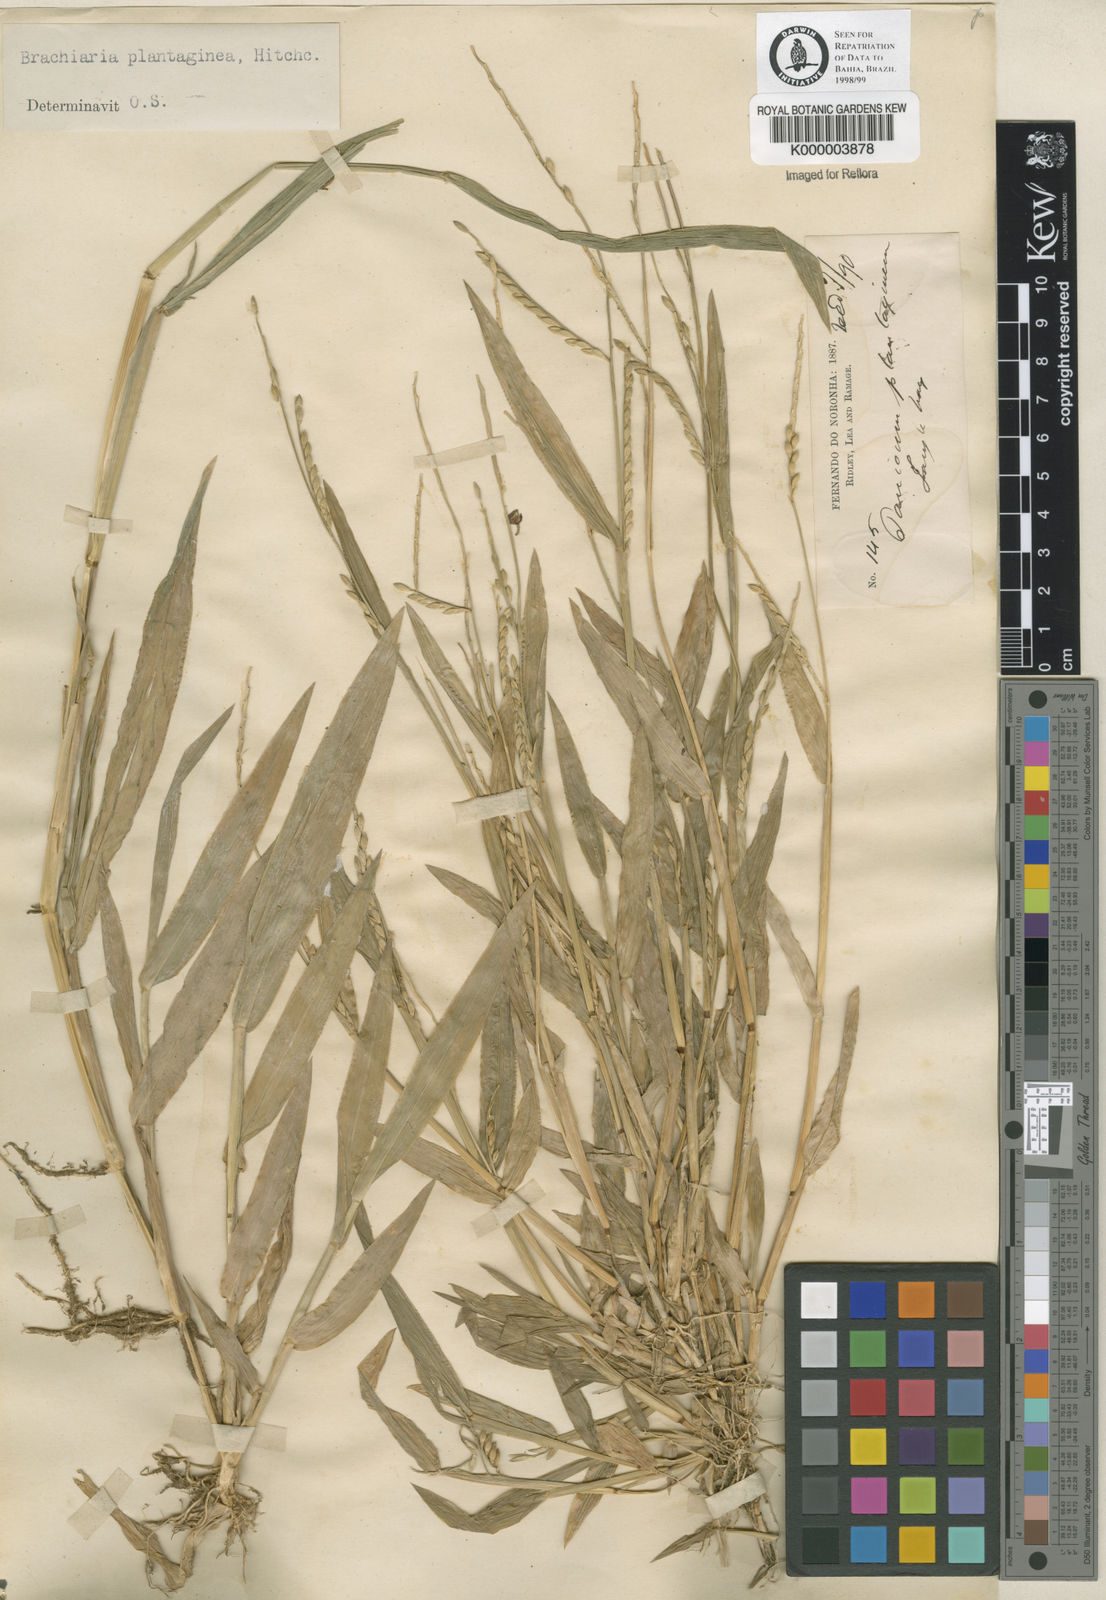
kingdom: Plantae
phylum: Tracheophyta
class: Liliopsida
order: Poales
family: Poaceae
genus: Urochloa
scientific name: Urochloa plantaginea
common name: Plantain signalgrass
